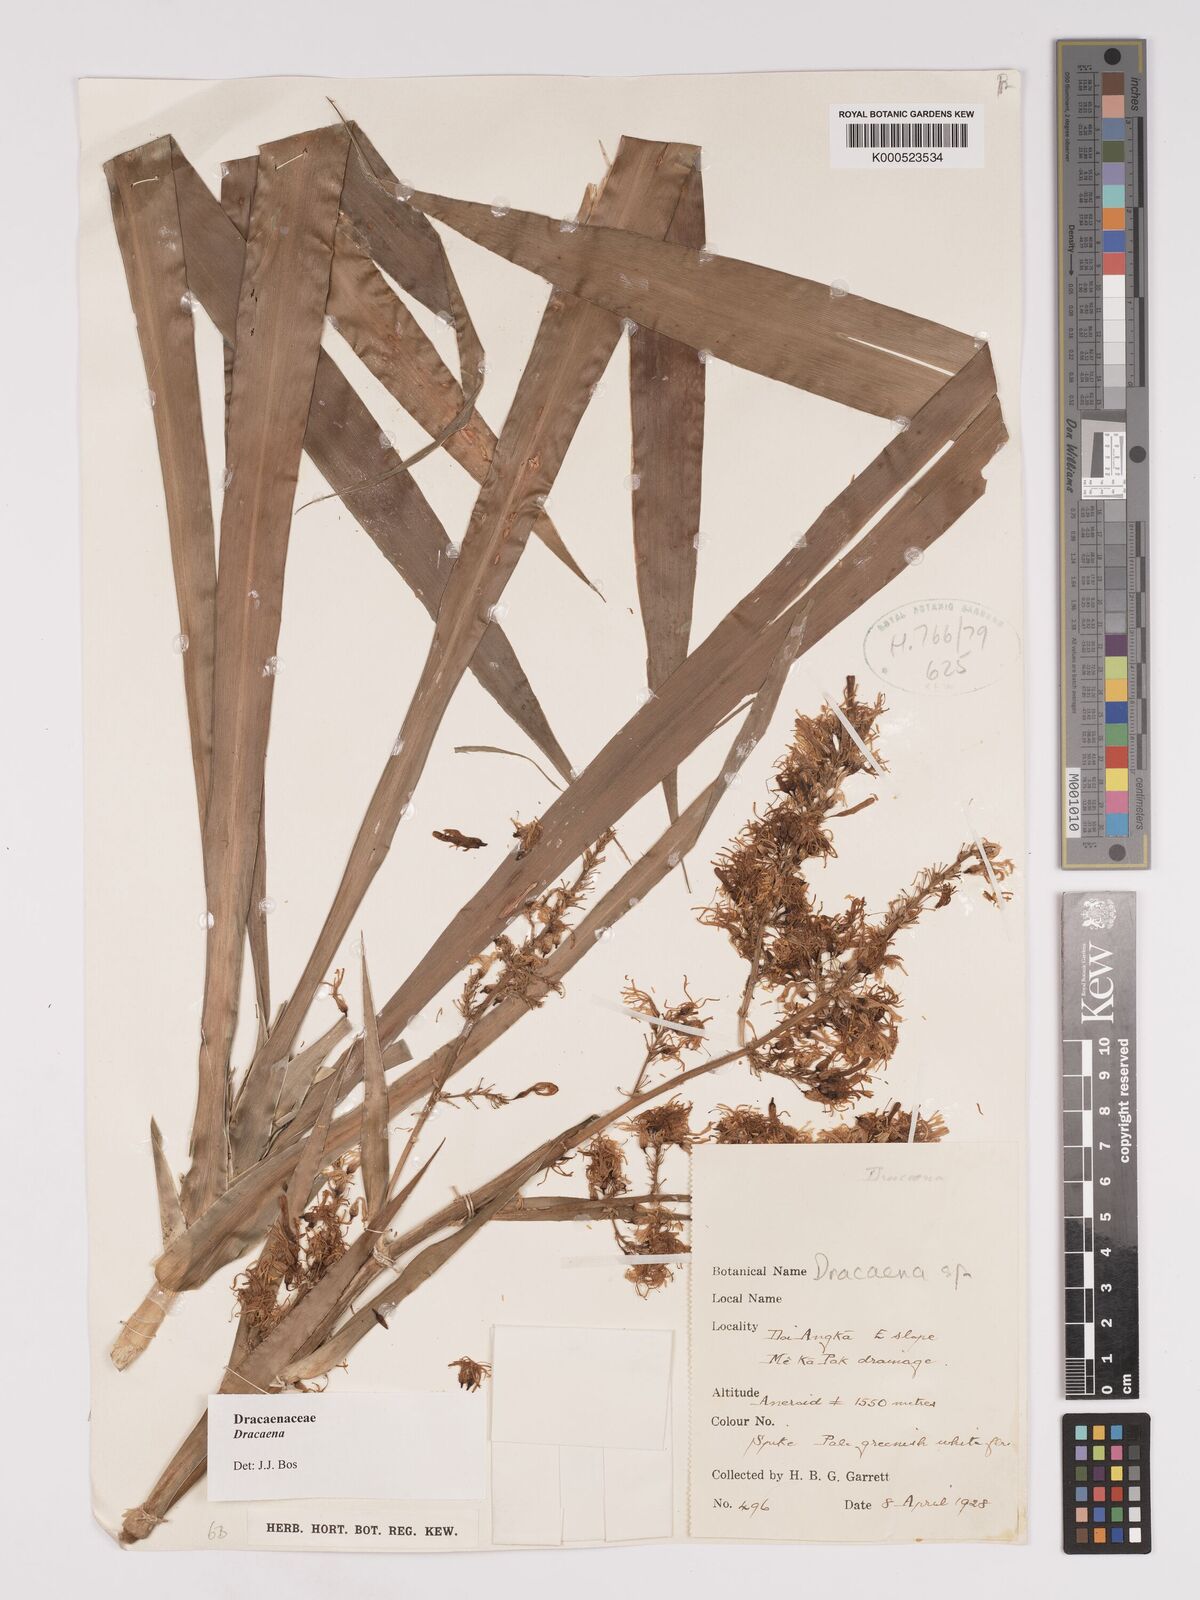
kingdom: Plantae
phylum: Tracheophyta
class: Liliopsida
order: Asparagales
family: Asparagaceae
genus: Dracaena
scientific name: Dracaena
